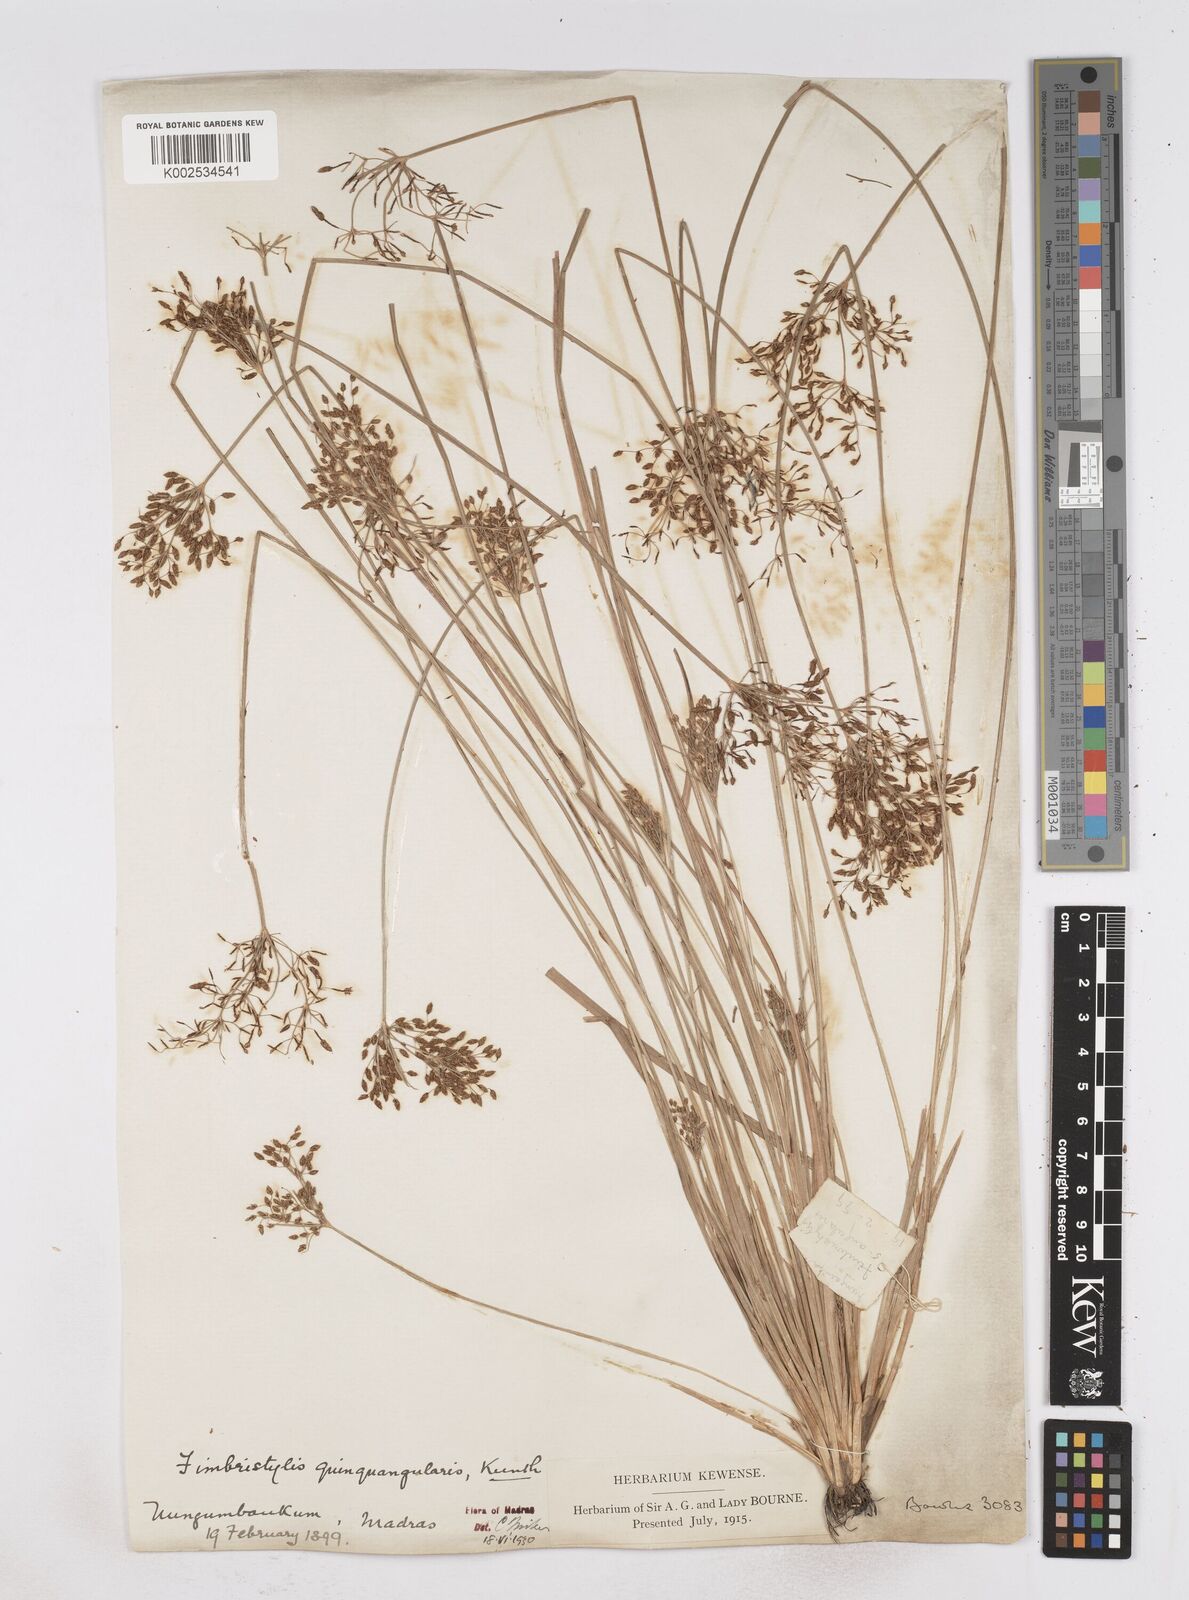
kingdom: Plantae
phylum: Tracheophyta
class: Liliopsida
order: Poales
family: Cyperaceae
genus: Fimbristylis
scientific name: Fimbristylis quinquangularis
